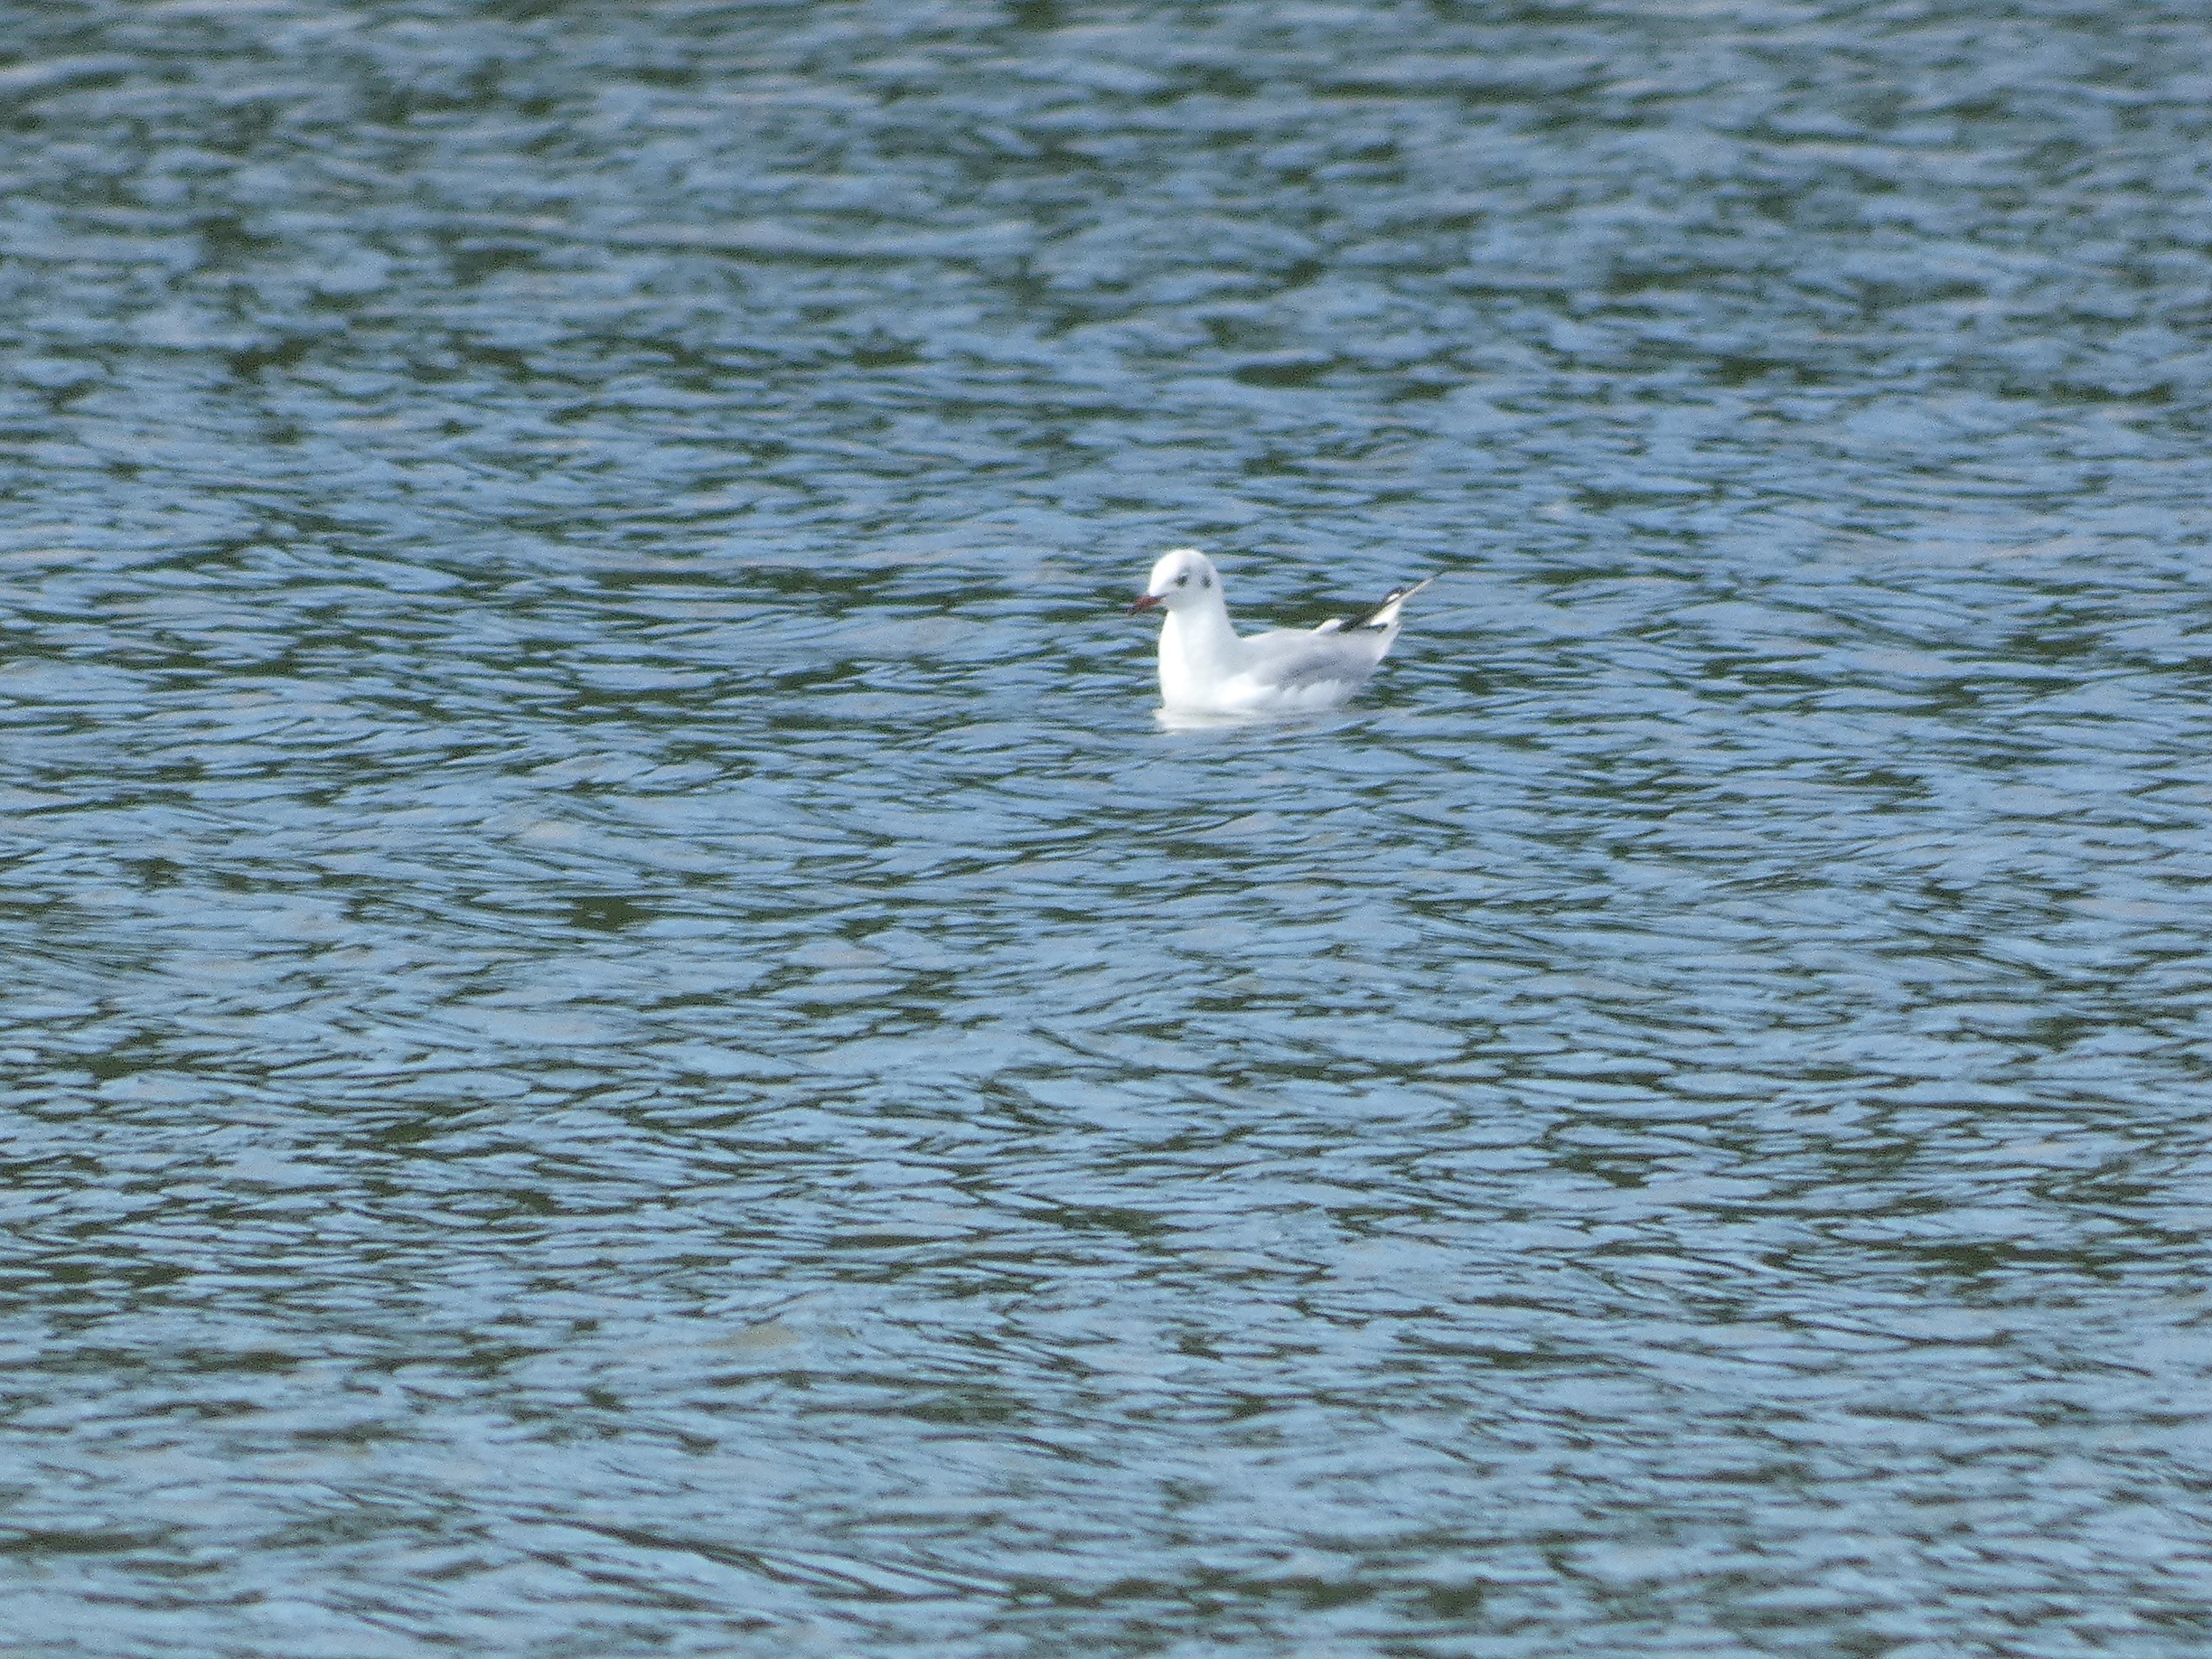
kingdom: Animalia
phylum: Chordata
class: Aves
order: Charadriiformes
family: Laridae
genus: Chroicocephalus
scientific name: Chroicocephalus ridibundus
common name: Hættemåge
